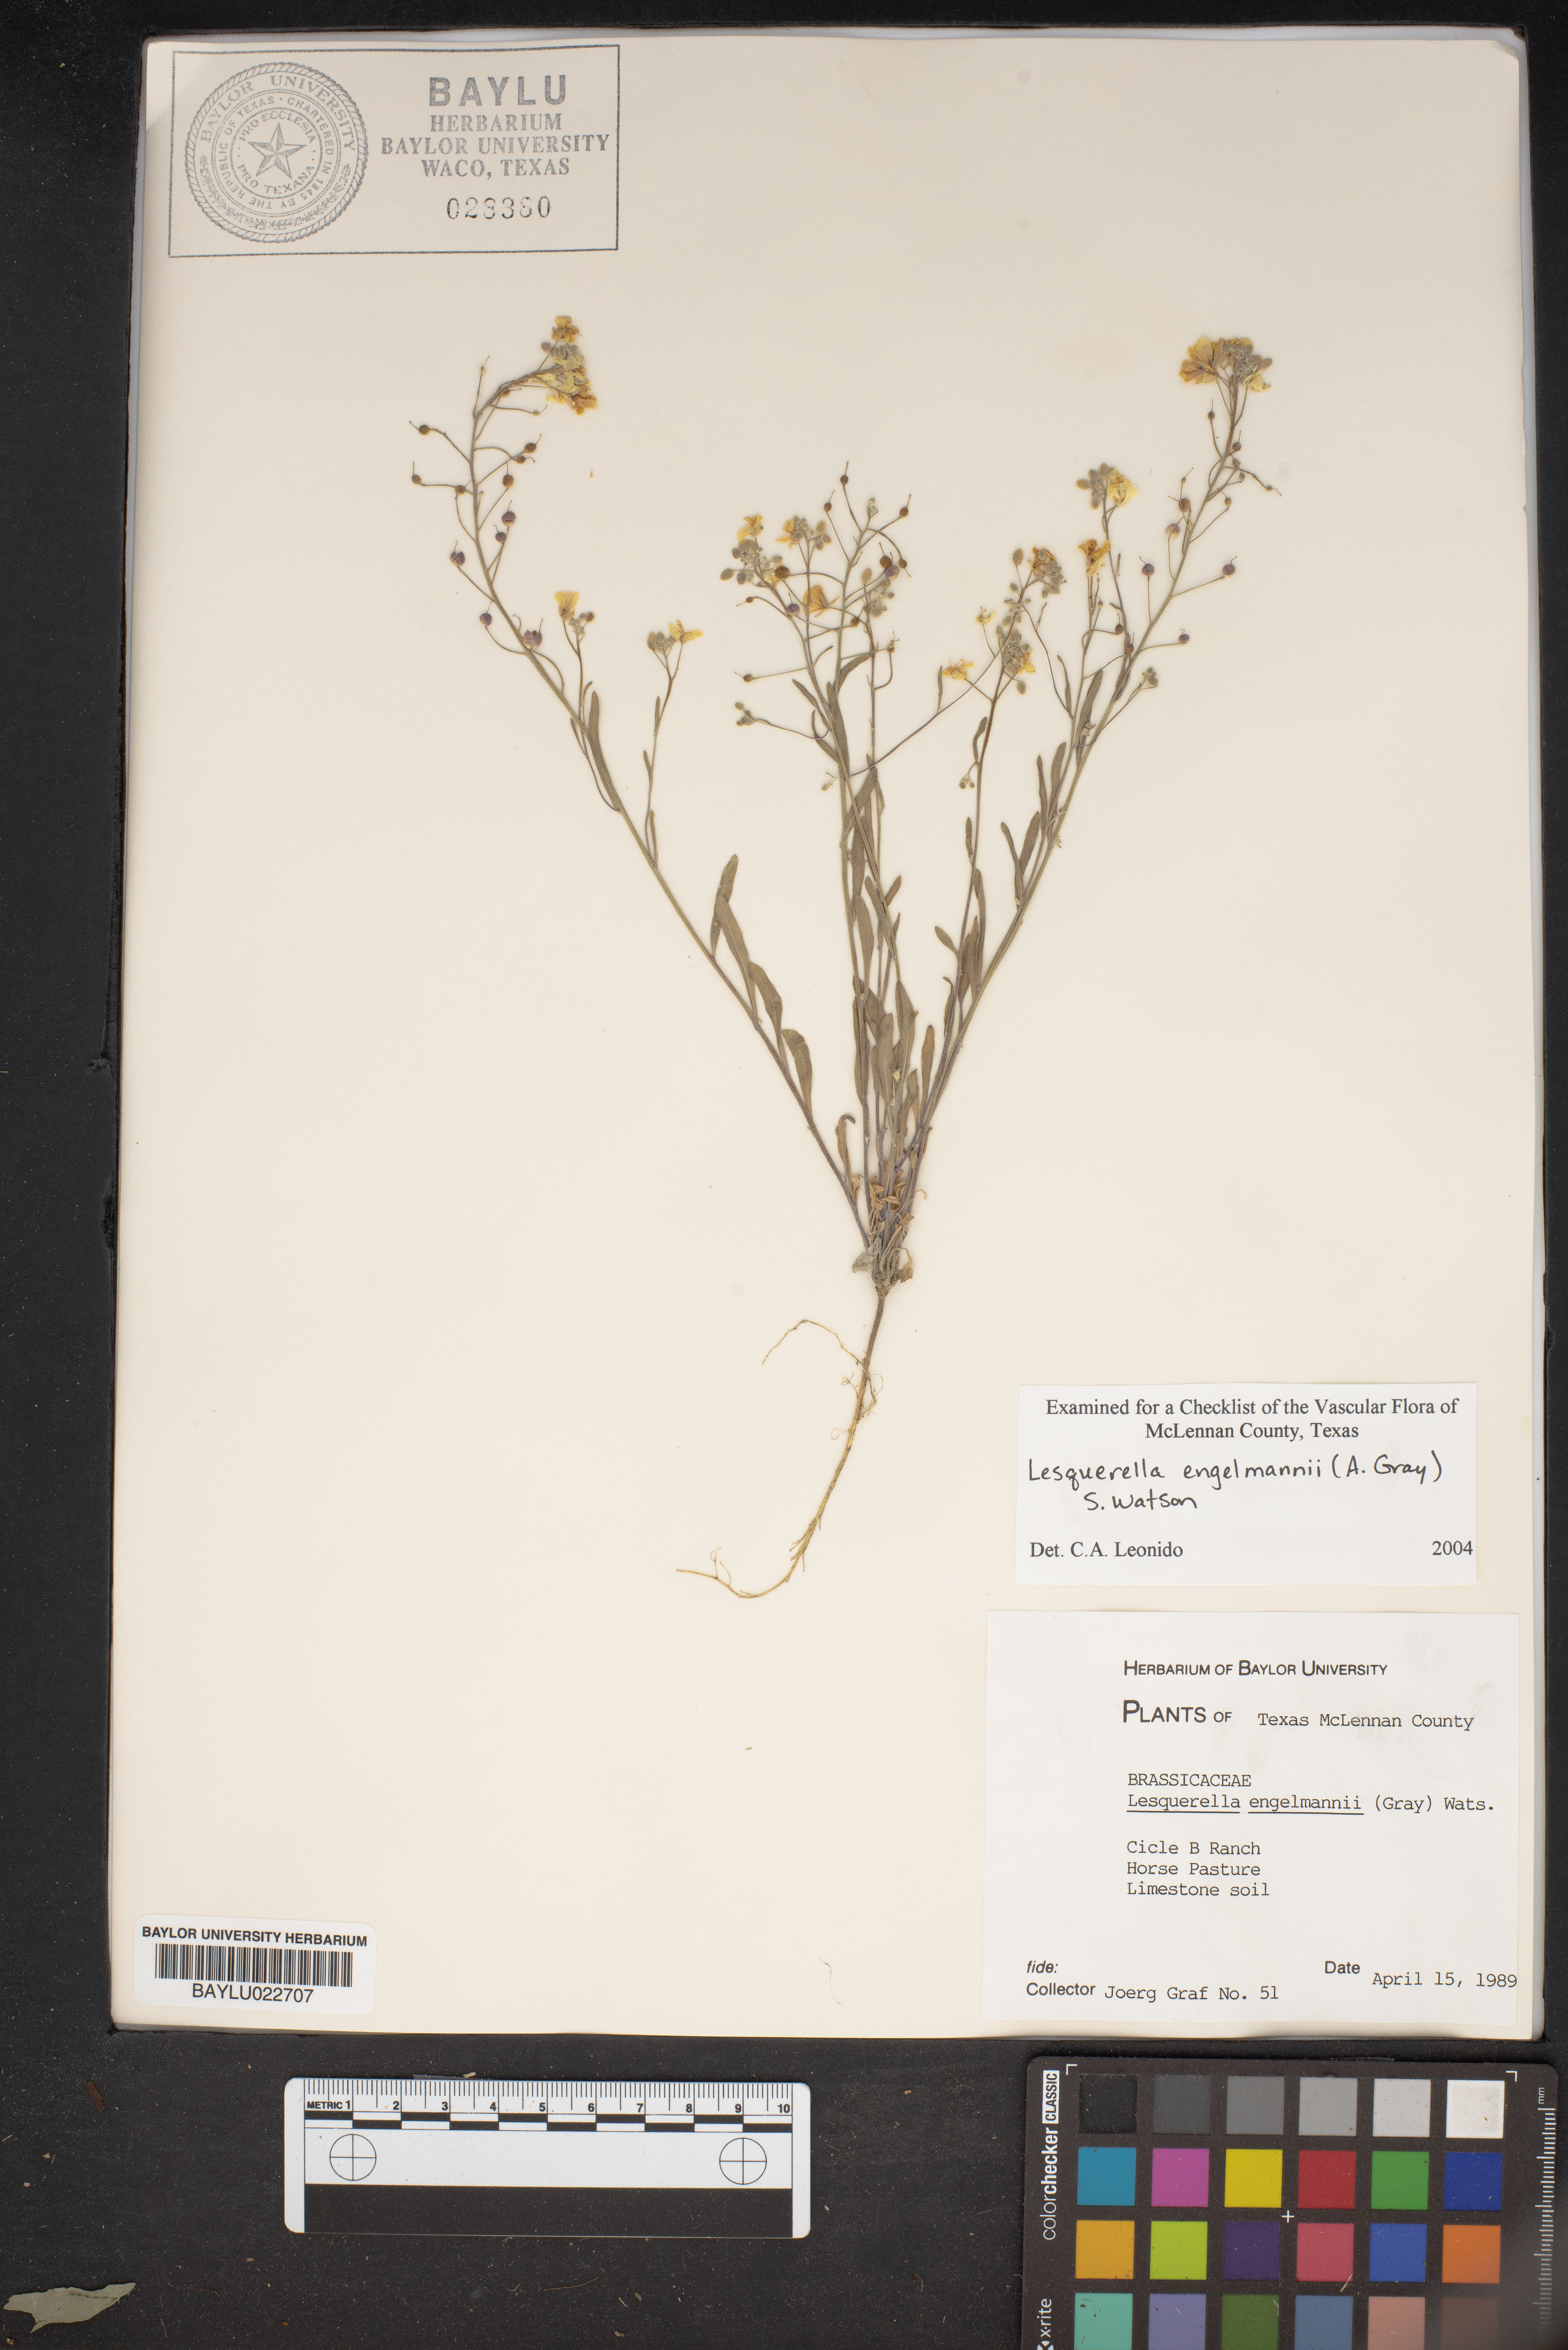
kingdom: Plantae
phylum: Tracheophyta
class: Magnoliopsida
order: Brassicales
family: Brassicaceae
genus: Physaria
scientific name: Physaria engelmannii
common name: Engelmann's bladderpod
